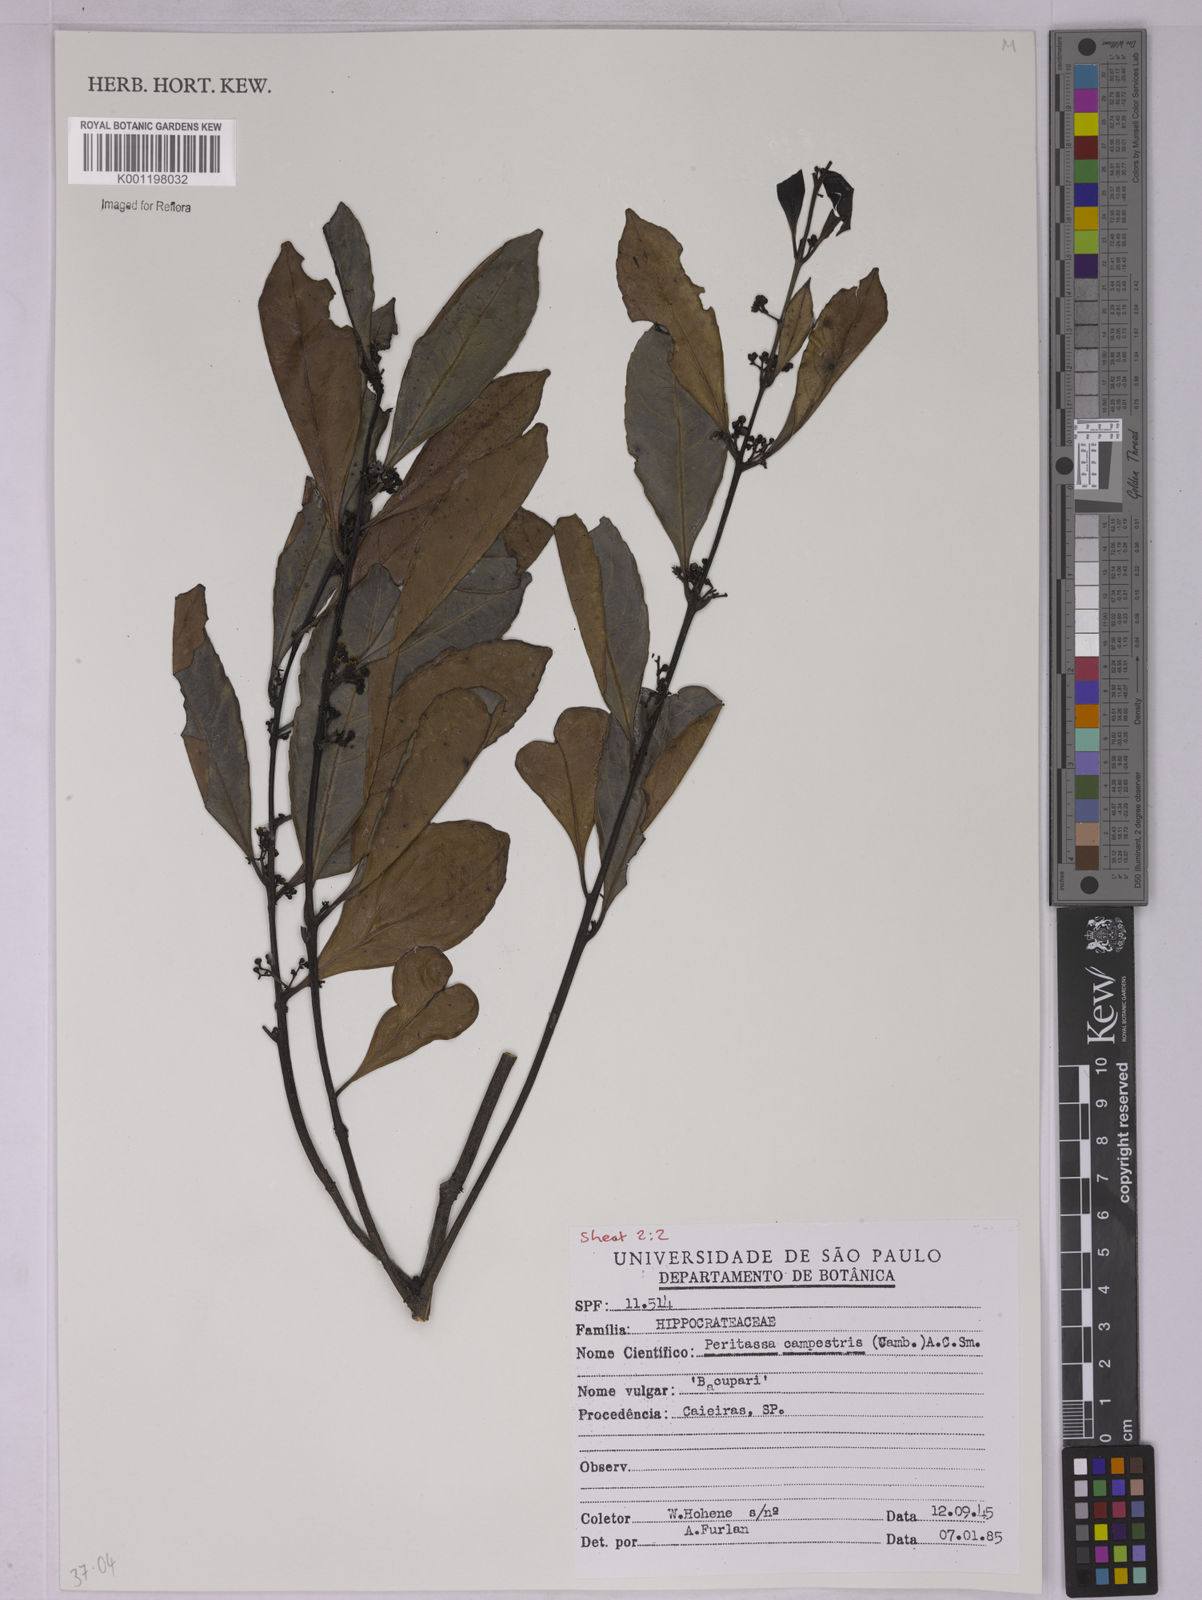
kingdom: Plantae
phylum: Tracheophyta
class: Magnoliopsida
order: Celastrales
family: Celastraceae
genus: Peritassa
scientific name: Peritassa campestris
